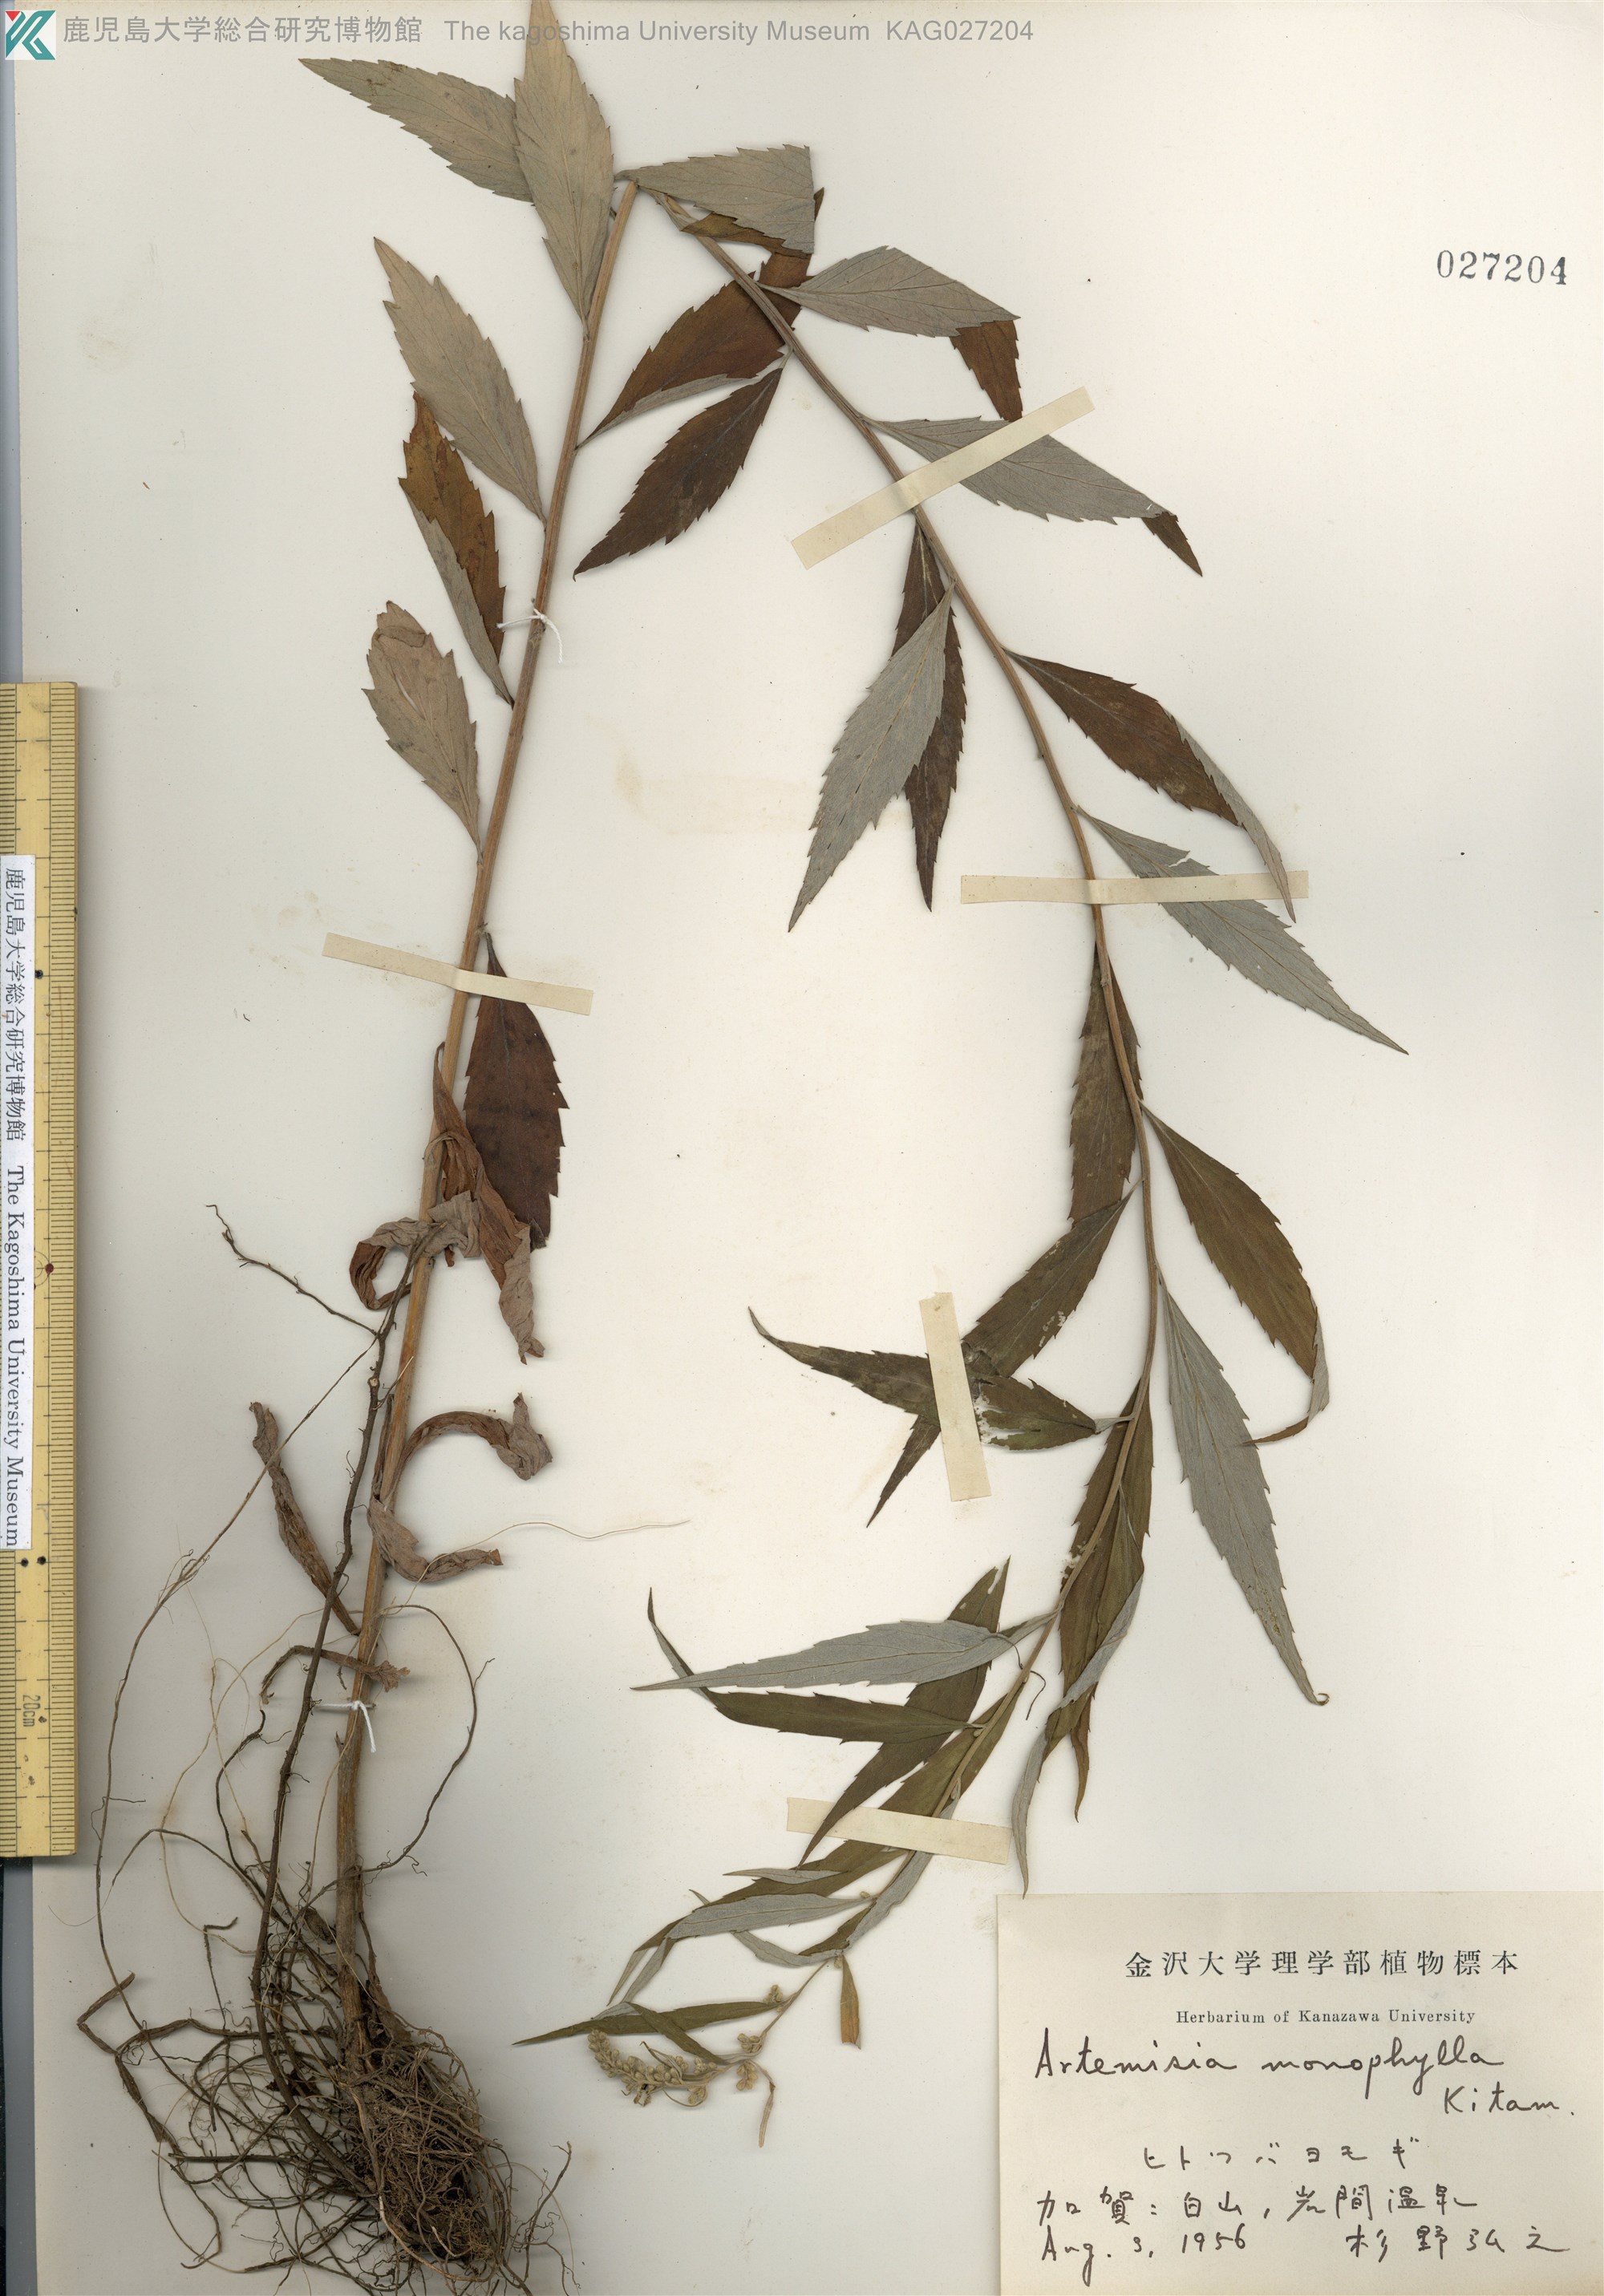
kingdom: Plantae
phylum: Tracheophyta
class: Magnoliopsida
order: Asterales
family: Asteraceae
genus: Artemisia
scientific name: Artemisia monophylla
